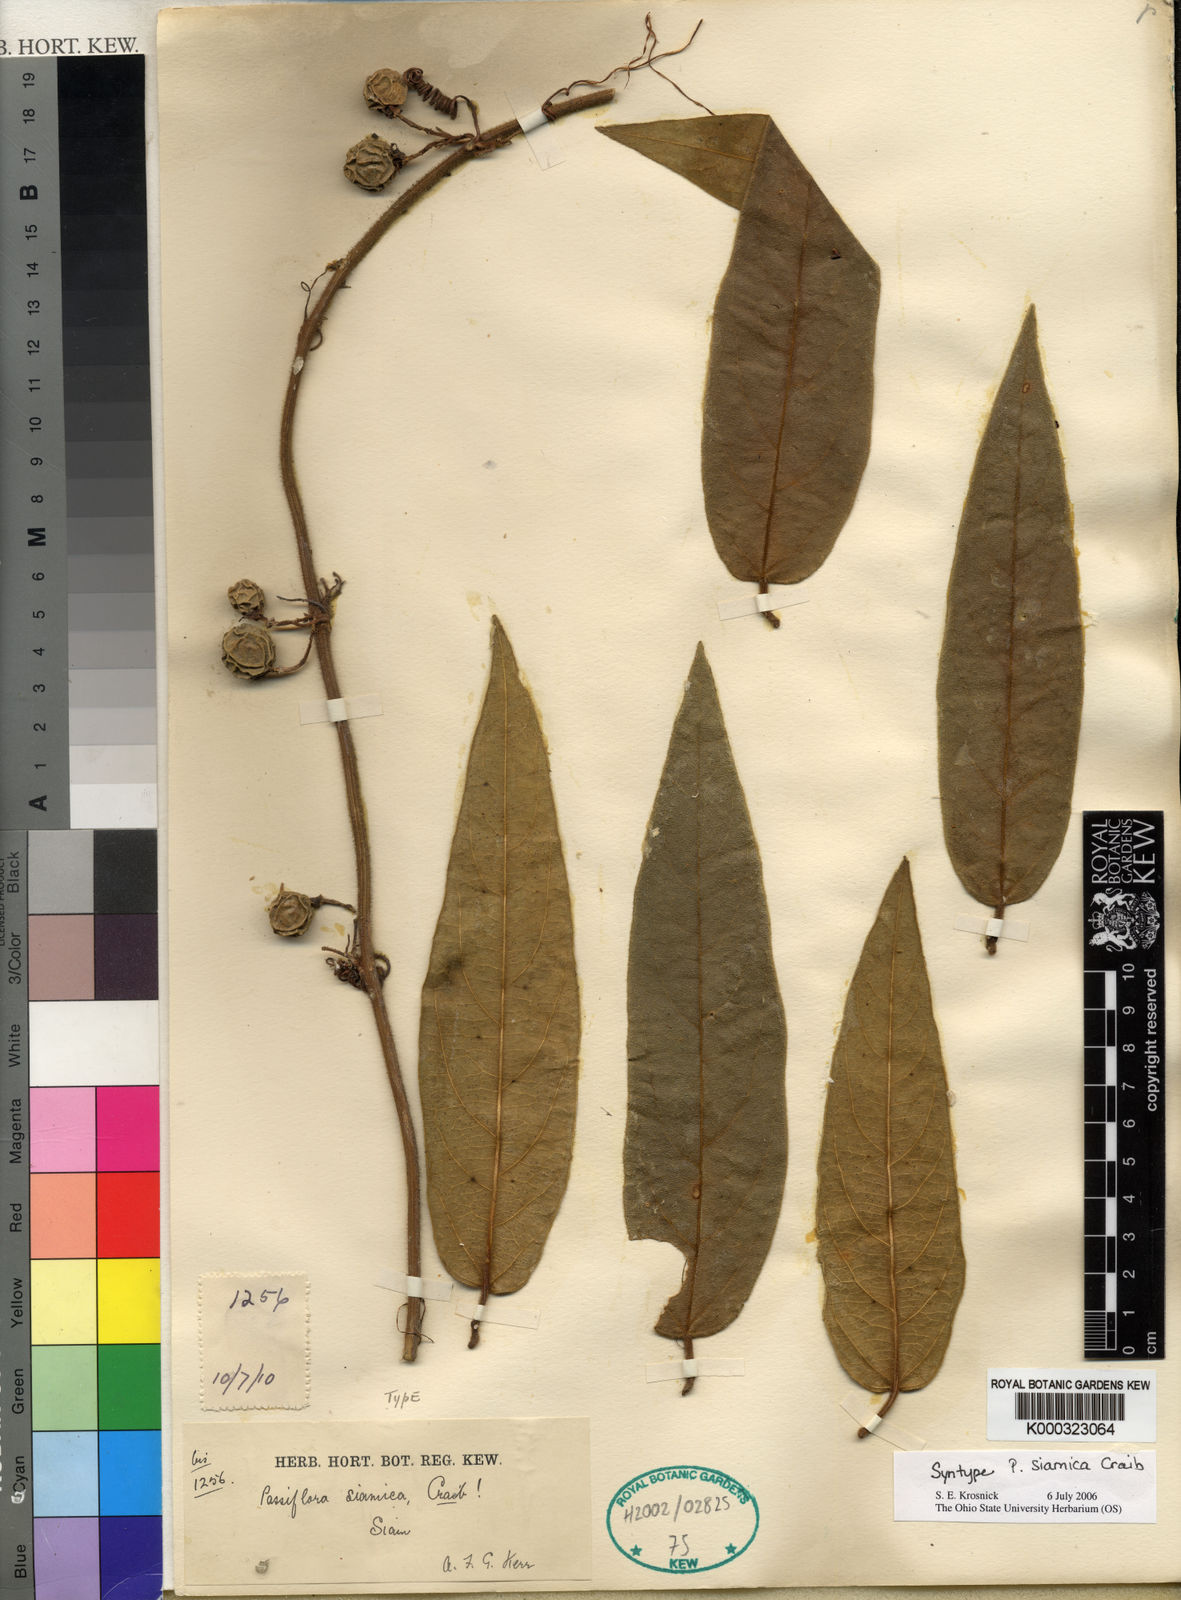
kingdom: Plantae
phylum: Tracheophyta
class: Magnoliopsida
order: Malpighiales
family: Passifloraceae
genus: Passiflora
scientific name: Passiflora siamica
